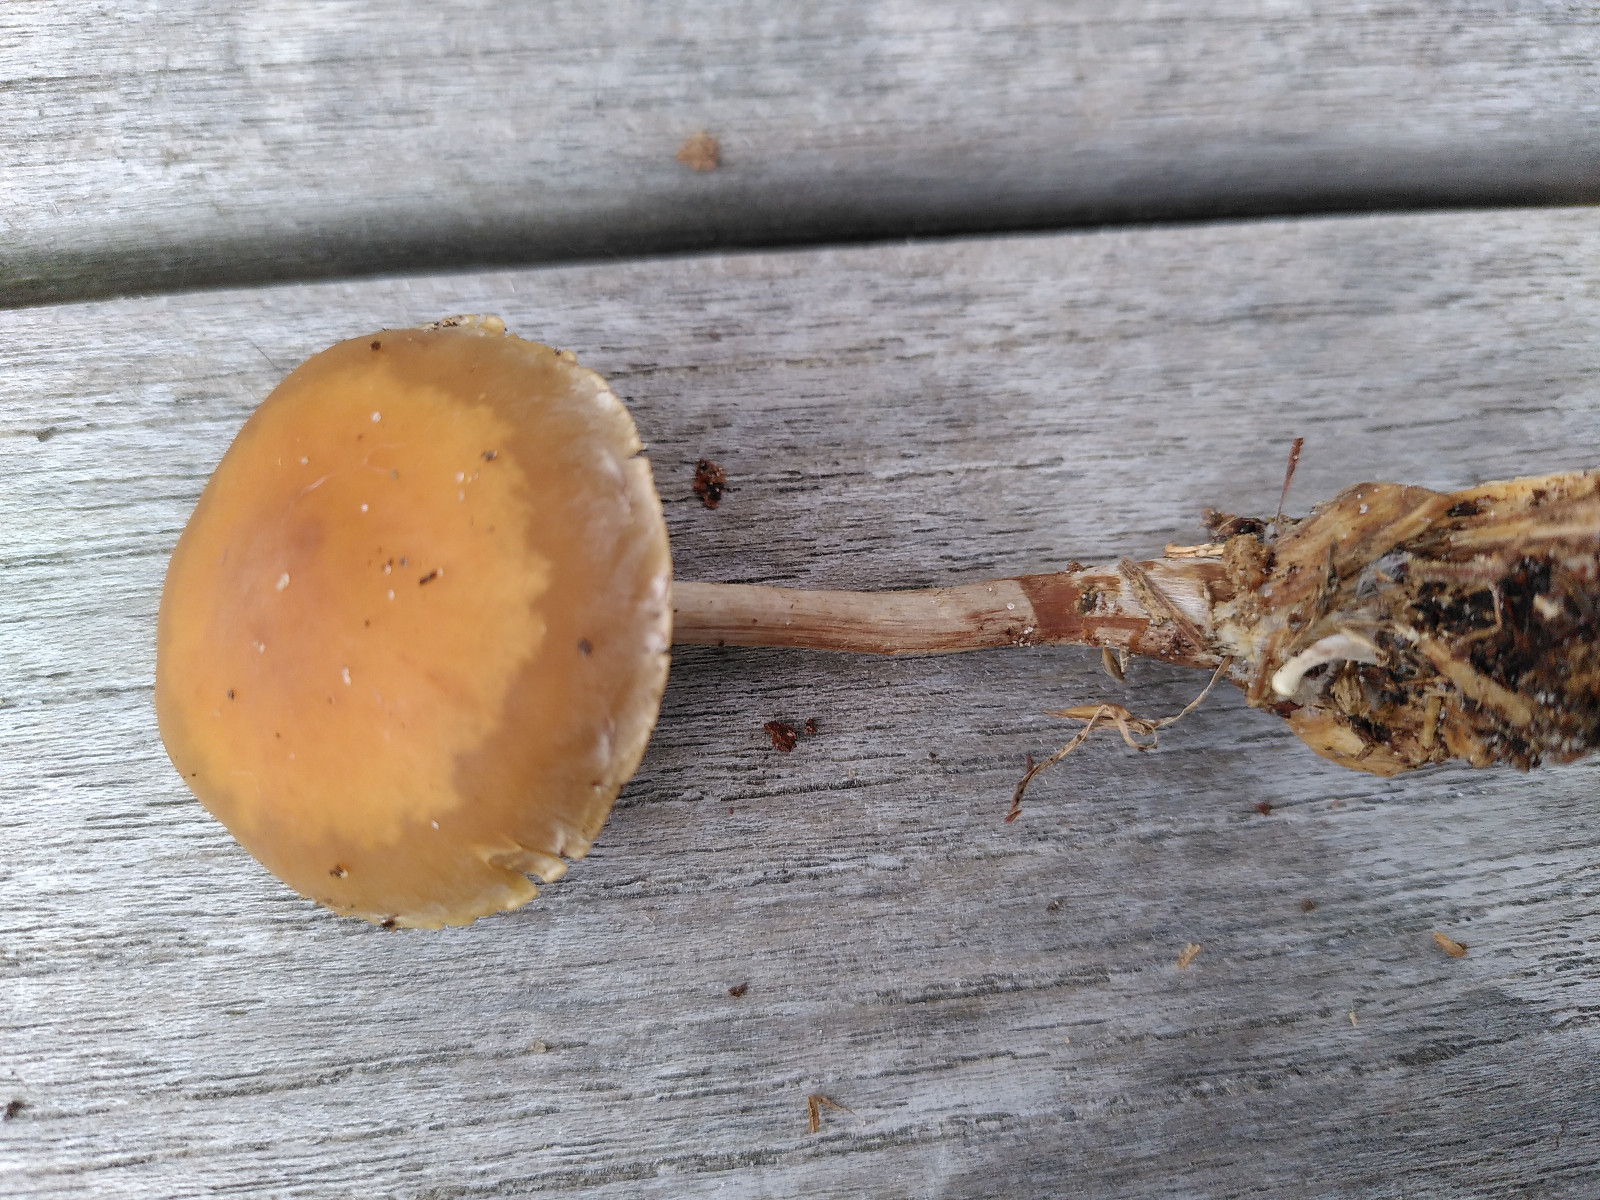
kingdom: Fungi
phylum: Basidiomycota
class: Agaricomycetes
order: Agaricales
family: Strophariaceae
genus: Hypholoma
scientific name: Hypholoma marginatum
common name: enlig svovlhat
